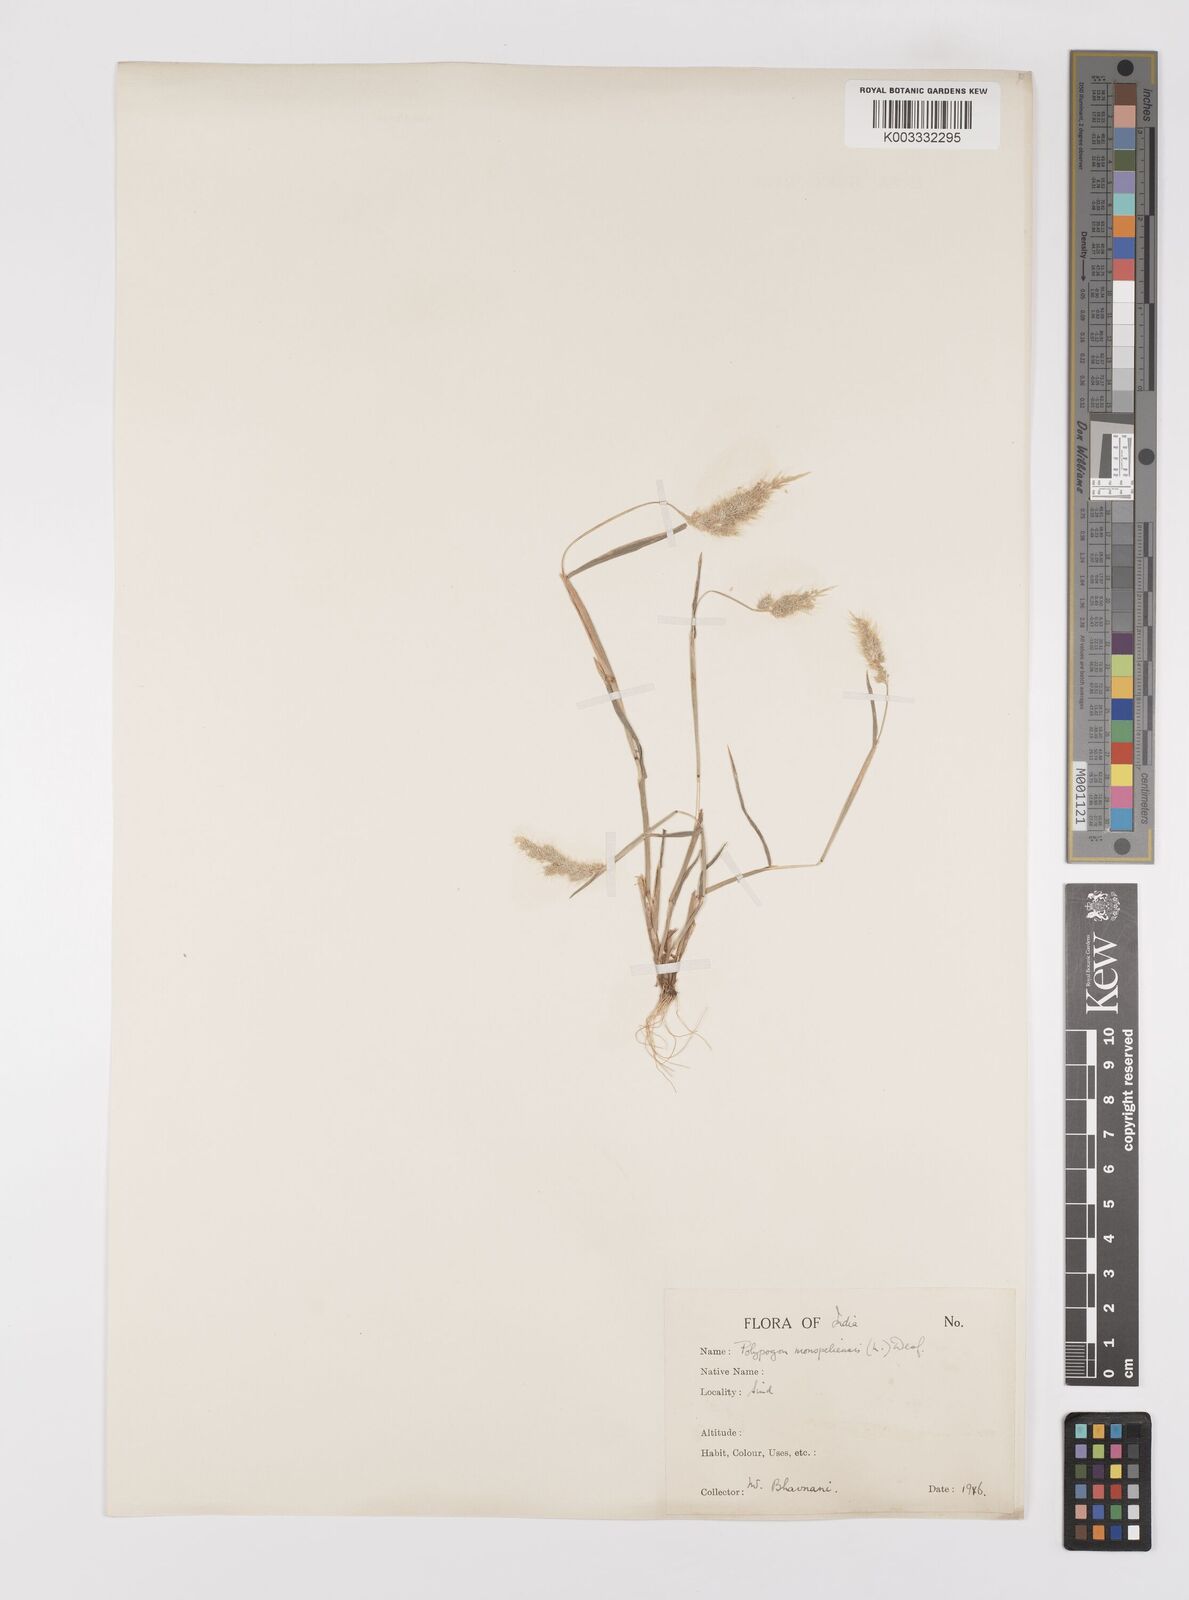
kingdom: Plantae
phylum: Tracheophyta
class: Liliopsida
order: Poales
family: Poaceae
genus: Polypogon
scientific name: Polypogon monspeliensis
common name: Annual rabbitsfoot grass
